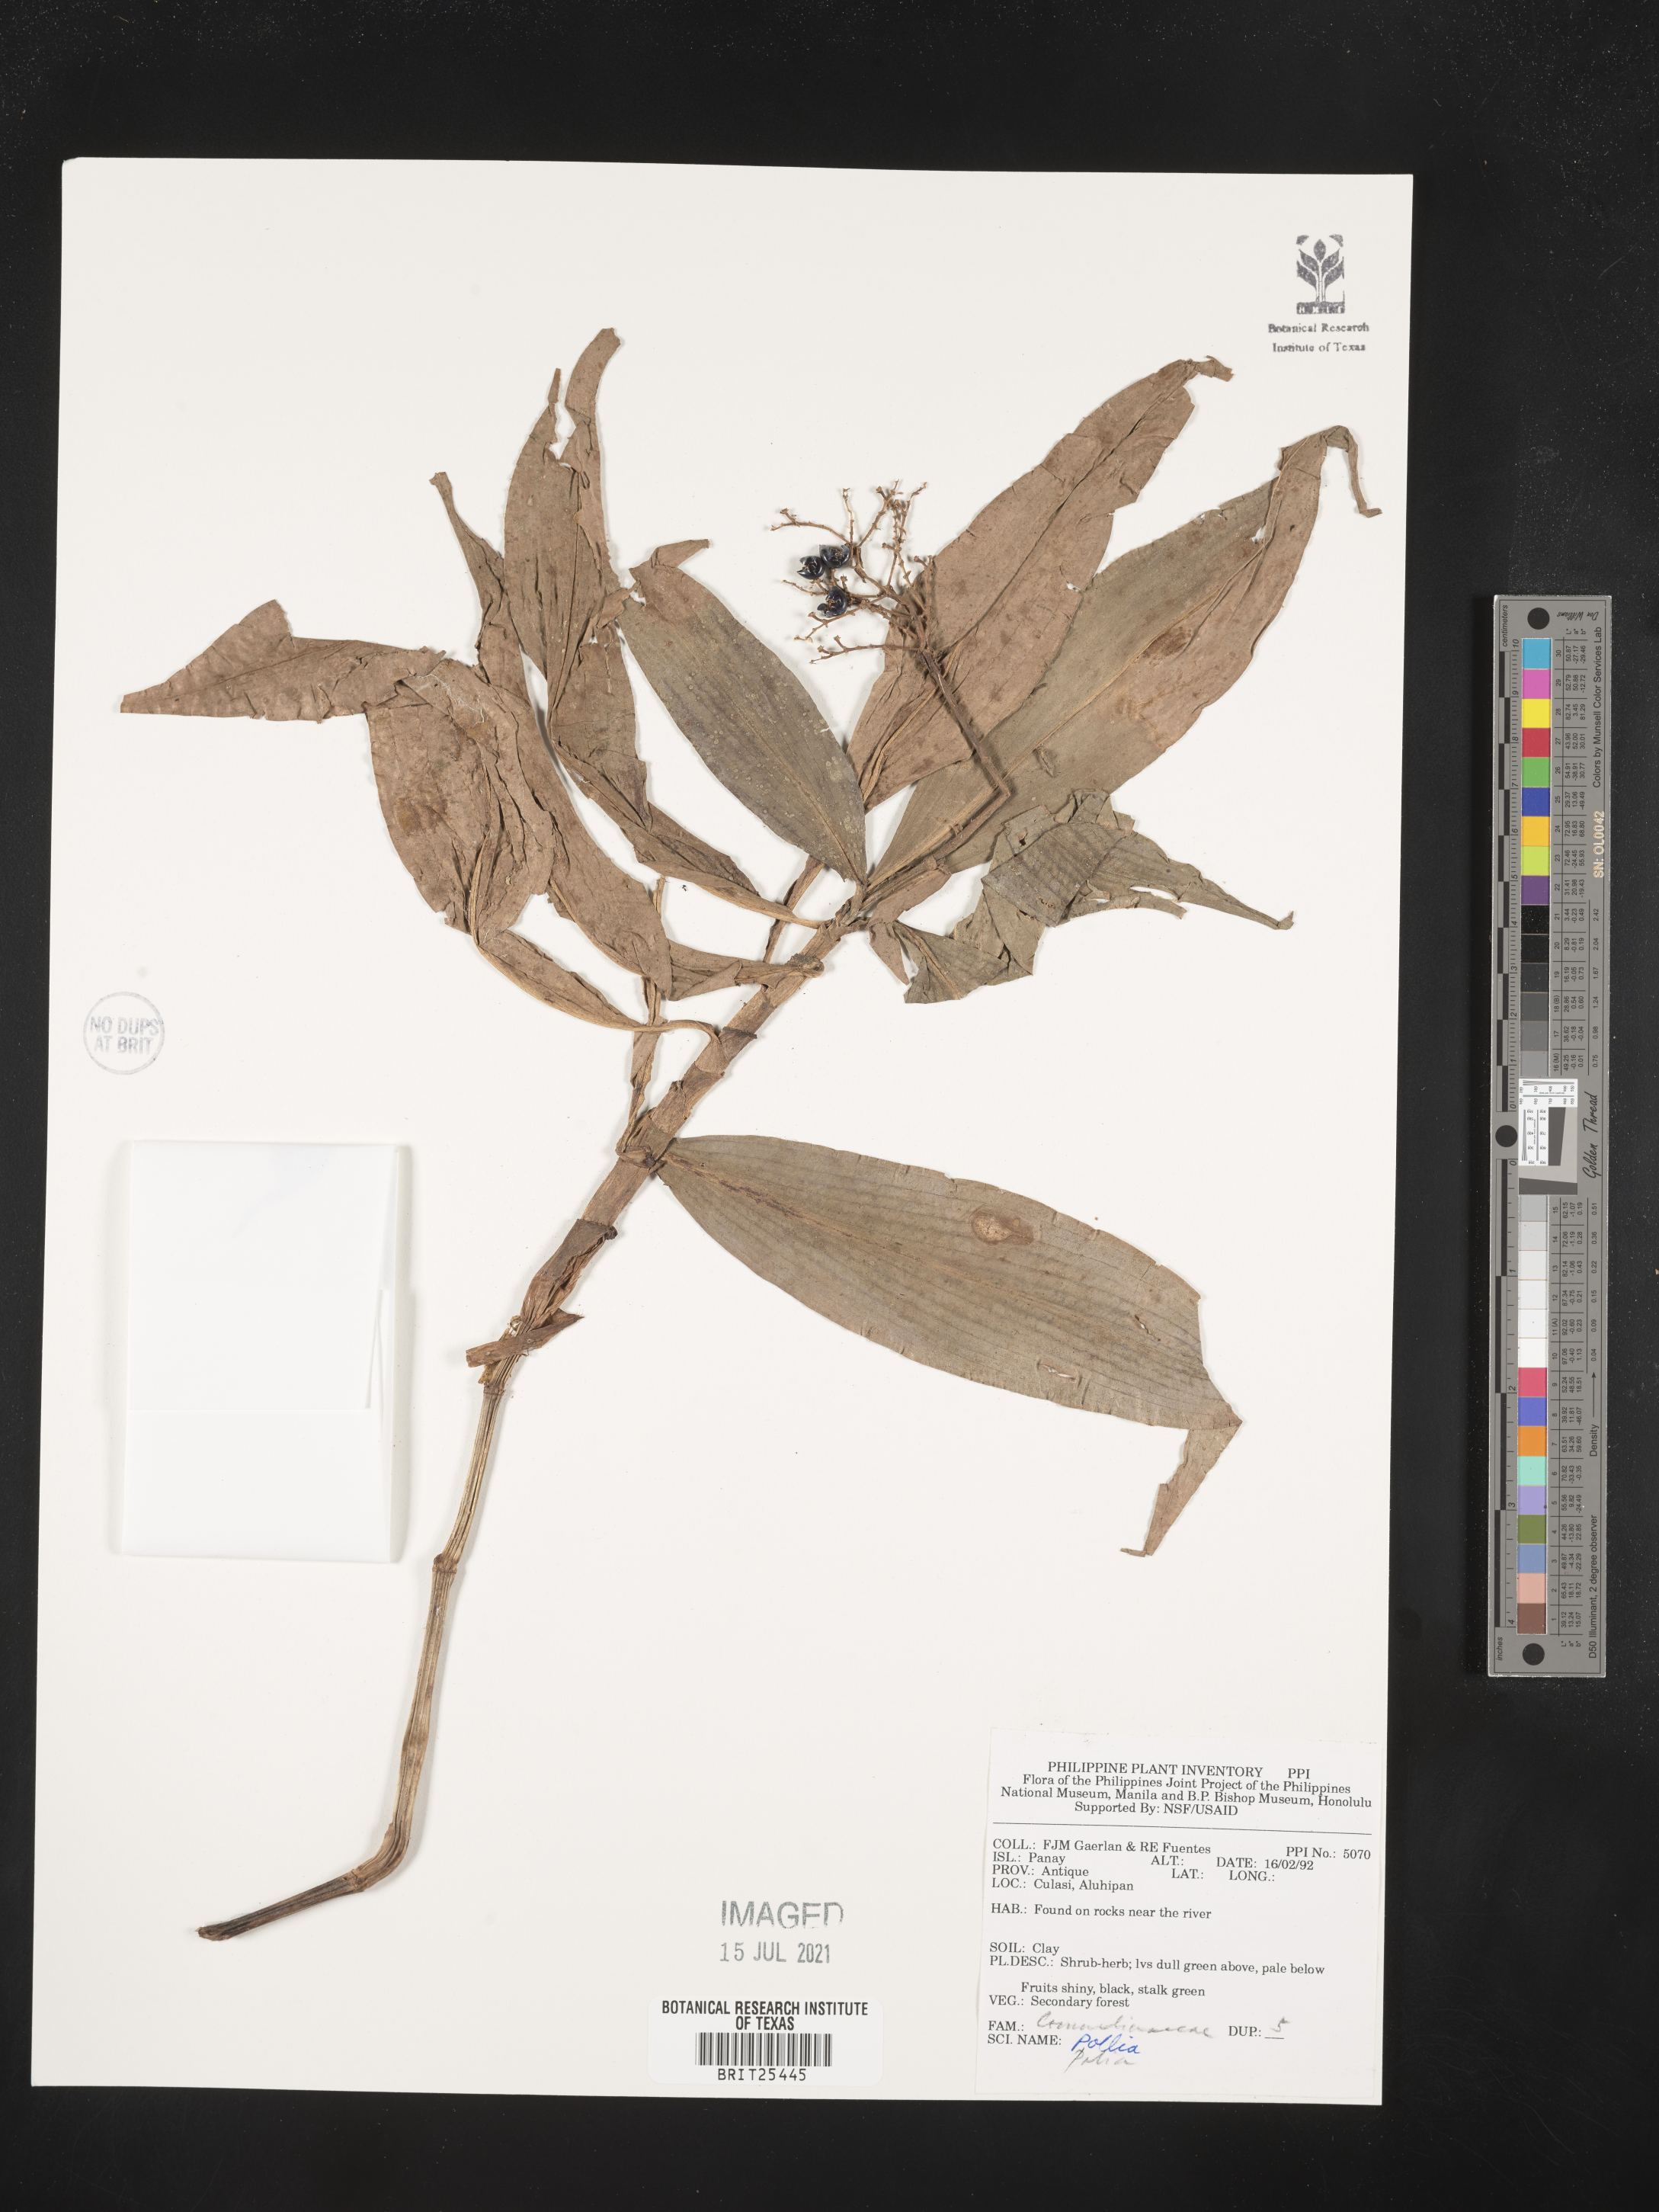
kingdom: Plantae
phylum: Tracheophyta
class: Liliopsida
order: Commelinales
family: Commelinaceae
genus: Pollia
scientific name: Pollia
